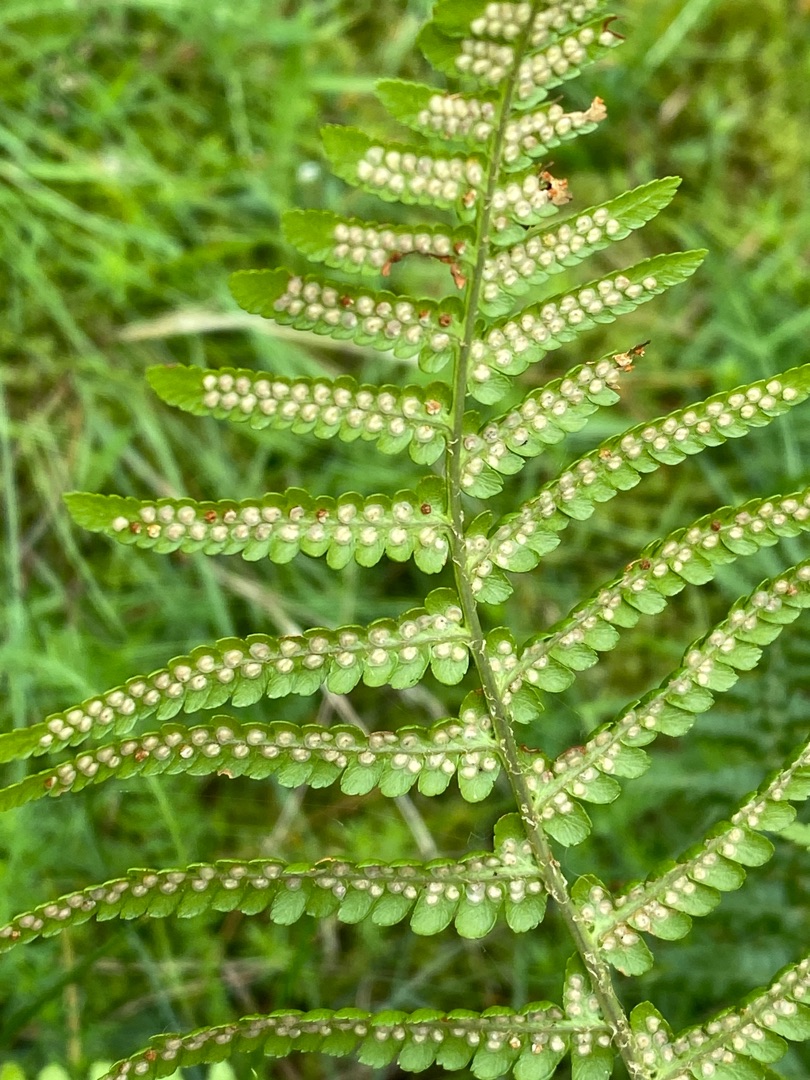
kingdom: Plantae
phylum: Tracheophyta
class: Polypodiopsida
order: Polypodiales
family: Dryopteridaceae
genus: Dryopteris
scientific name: Dryopteris filix-mas
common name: Almindelig mangeløv
